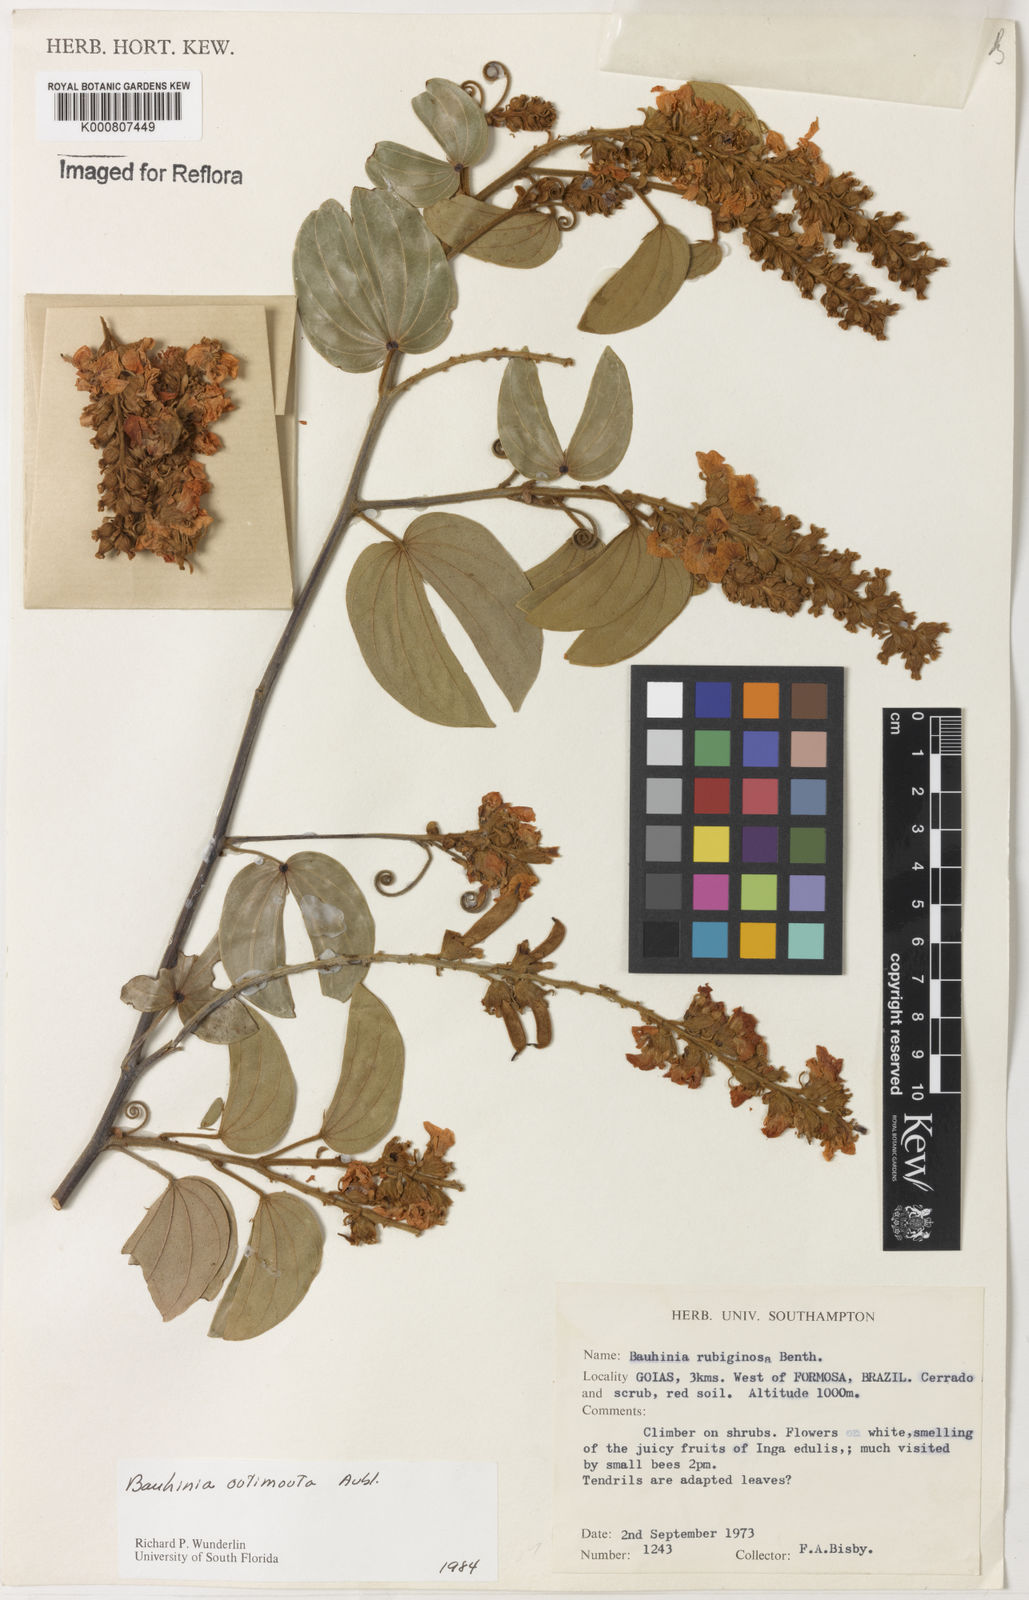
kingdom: Plantae
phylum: Tracheophyta
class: Magnoliopsida
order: Fabales
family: Fabaceae
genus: Schnella
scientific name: Schnella outimouta
